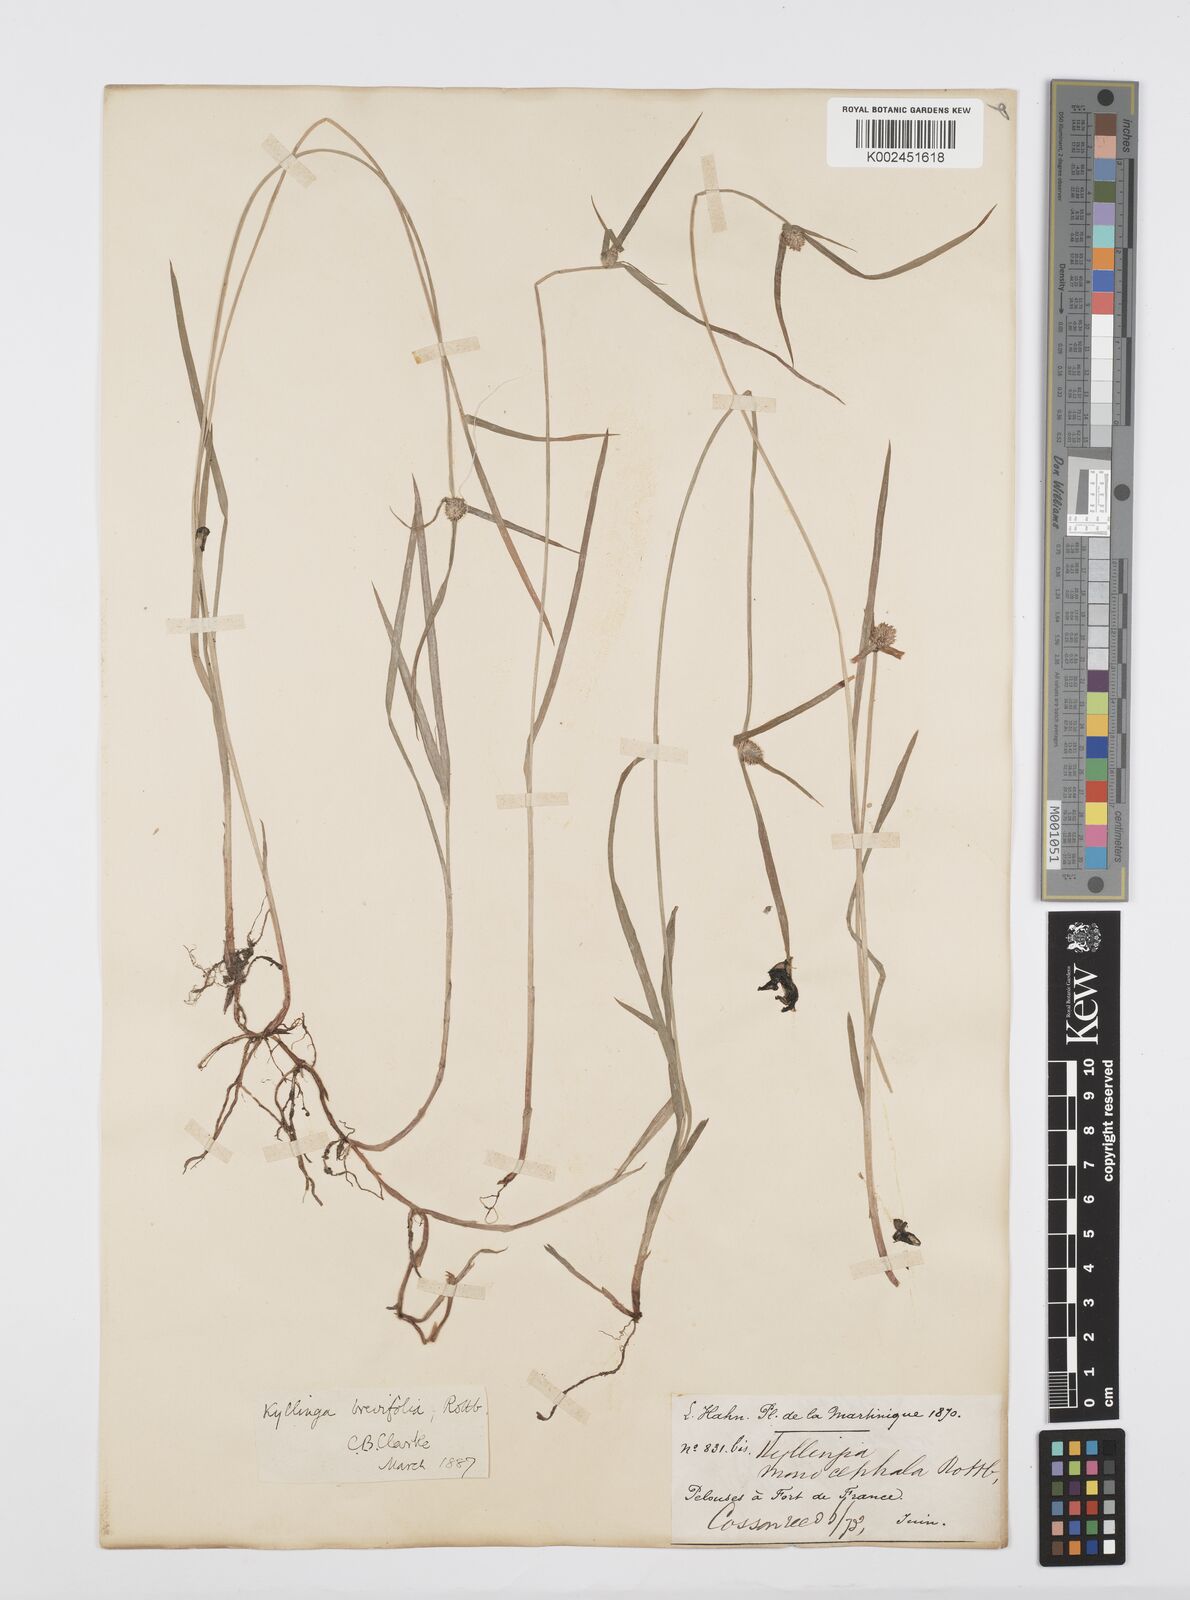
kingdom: Plantae
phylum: Tracheophyta
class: Liliopsida
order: Poales
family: Cyperaceae
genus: Cyperus
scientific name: Cyperus brevifolius
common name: Globe kyllinga
